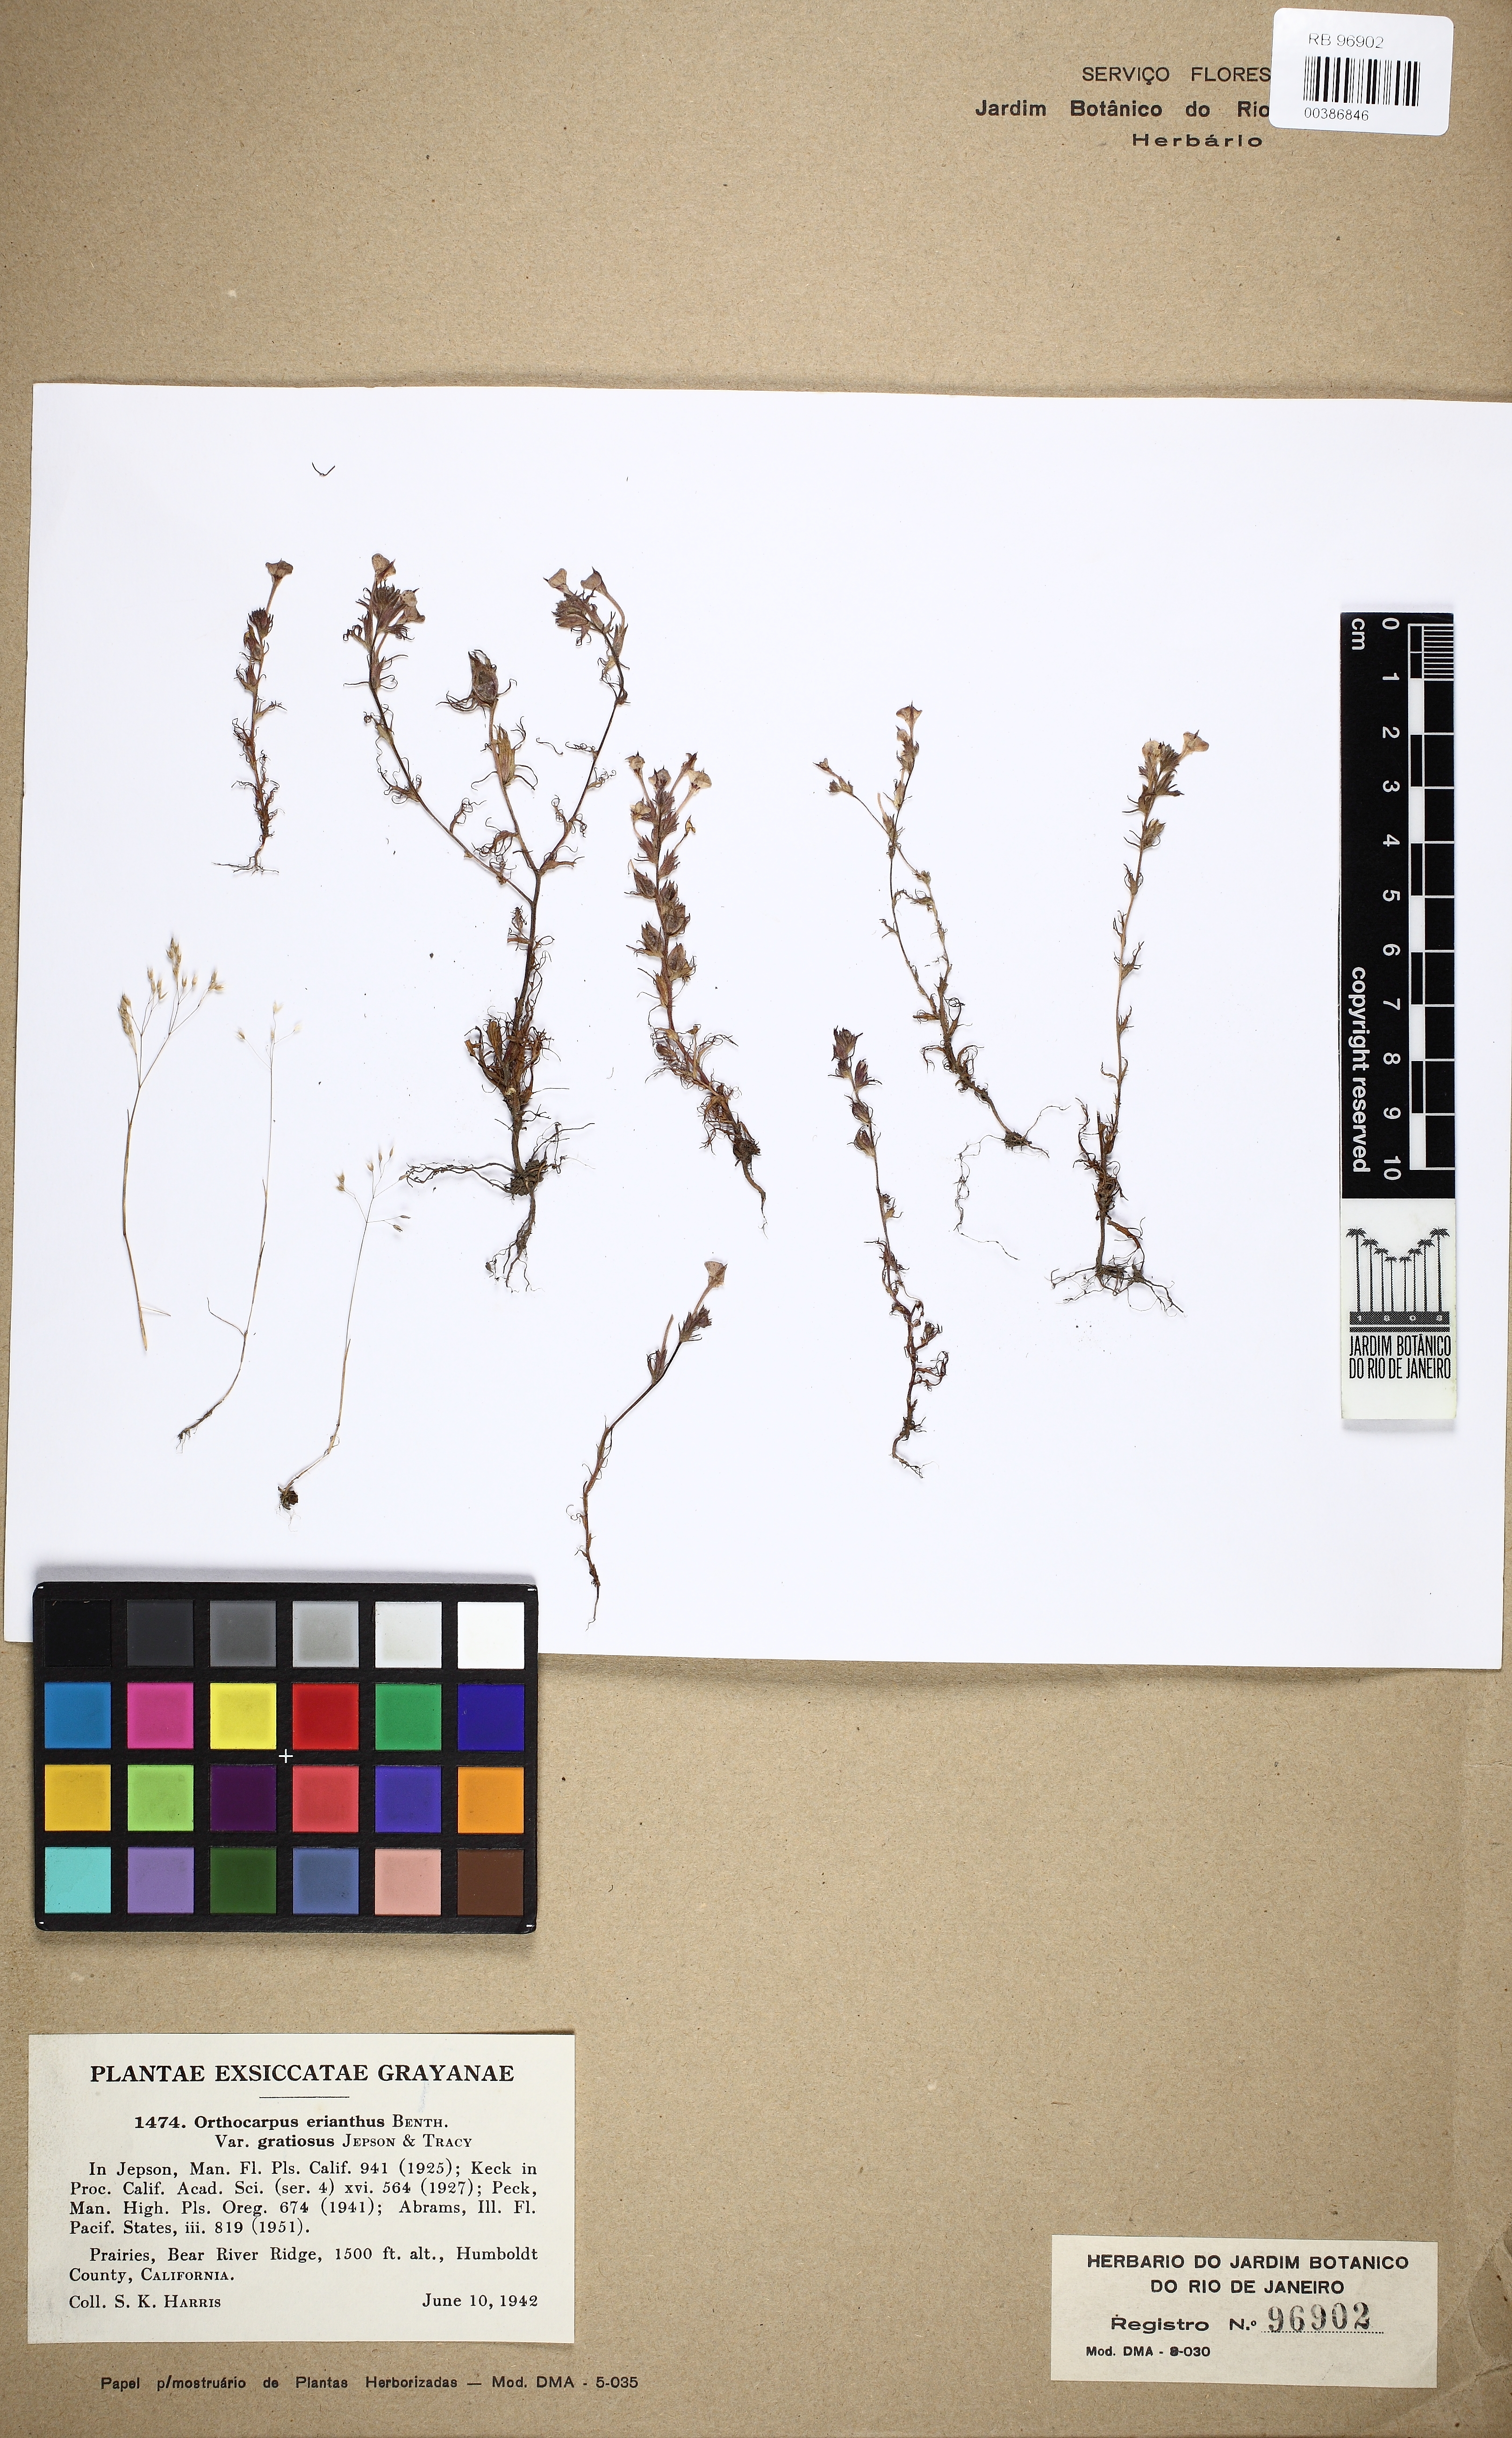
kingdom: Plantae
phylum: Tracheophyta
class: Magnoliopsida
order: Lamiales
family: Scrophulariaceae
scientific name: Scrophulariaceae
